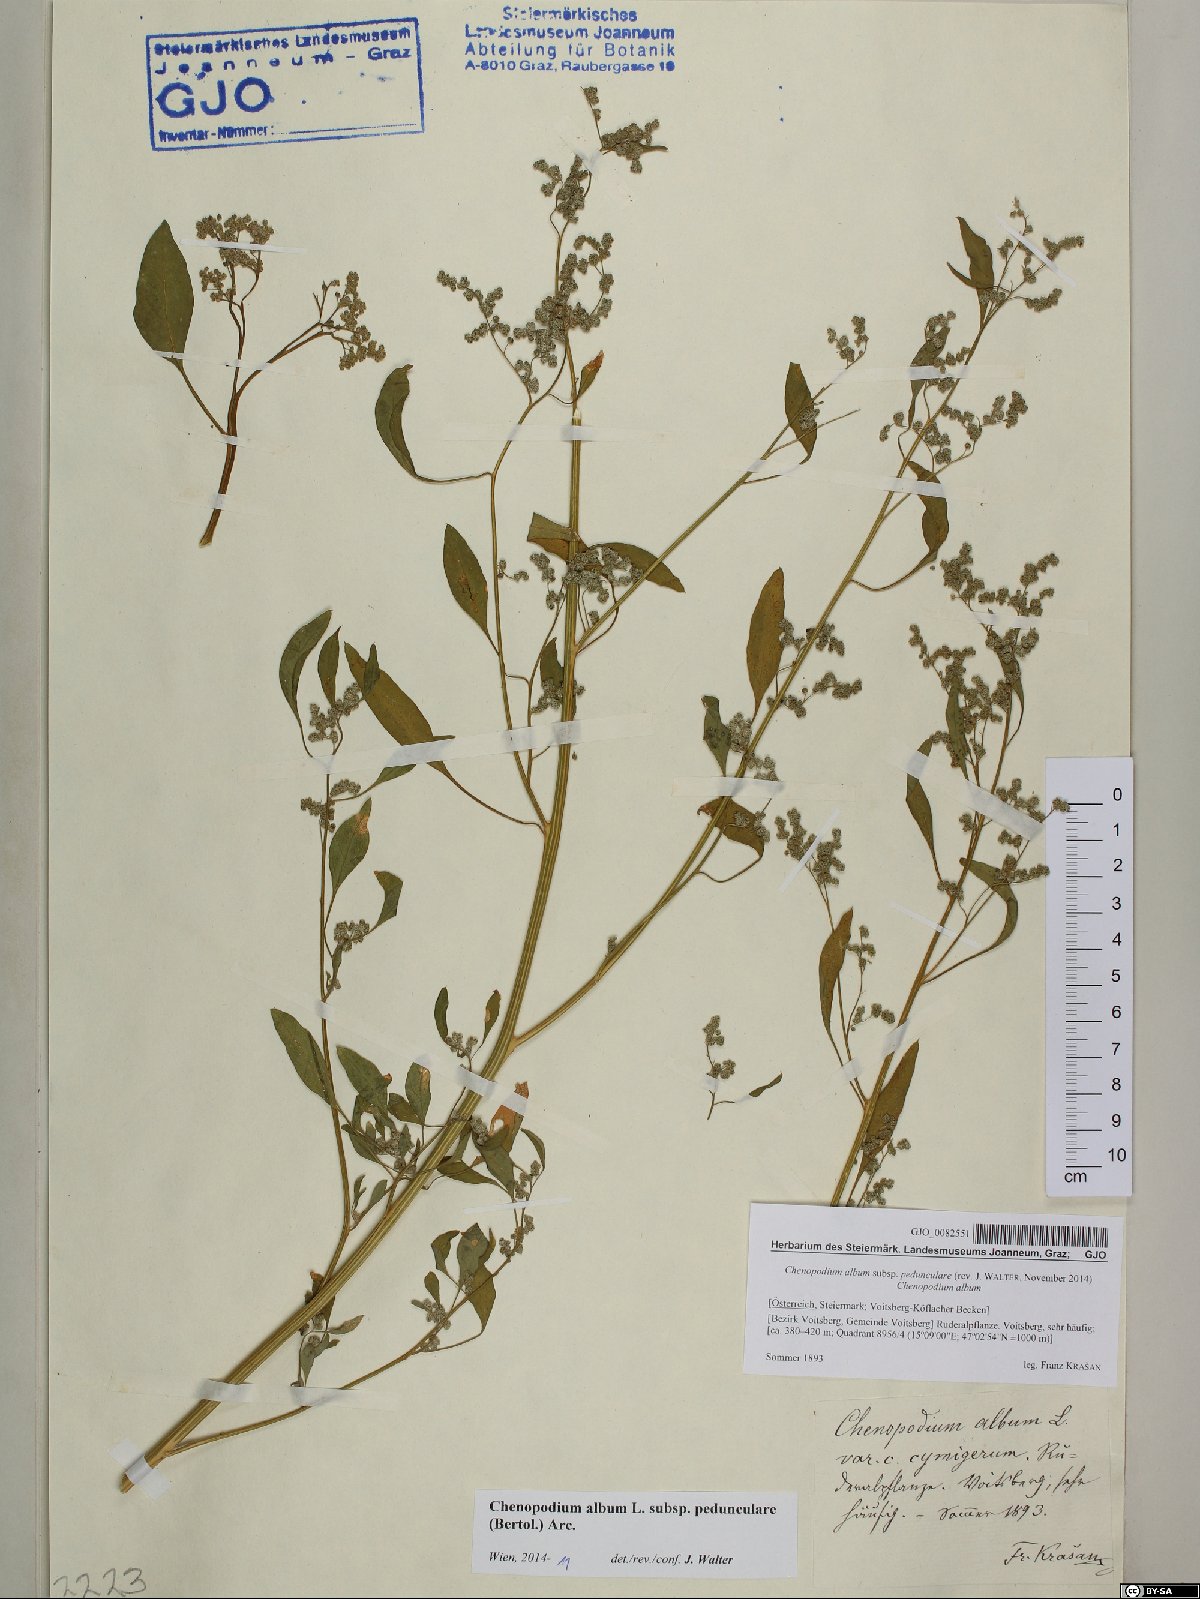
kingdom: Plantae
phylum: Tracheophyta
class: Magnoliopsida
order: Caryophyllales
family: Amaranthaceae
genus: Chenopodium
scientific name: Chenopodium album
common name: Fat-hen
